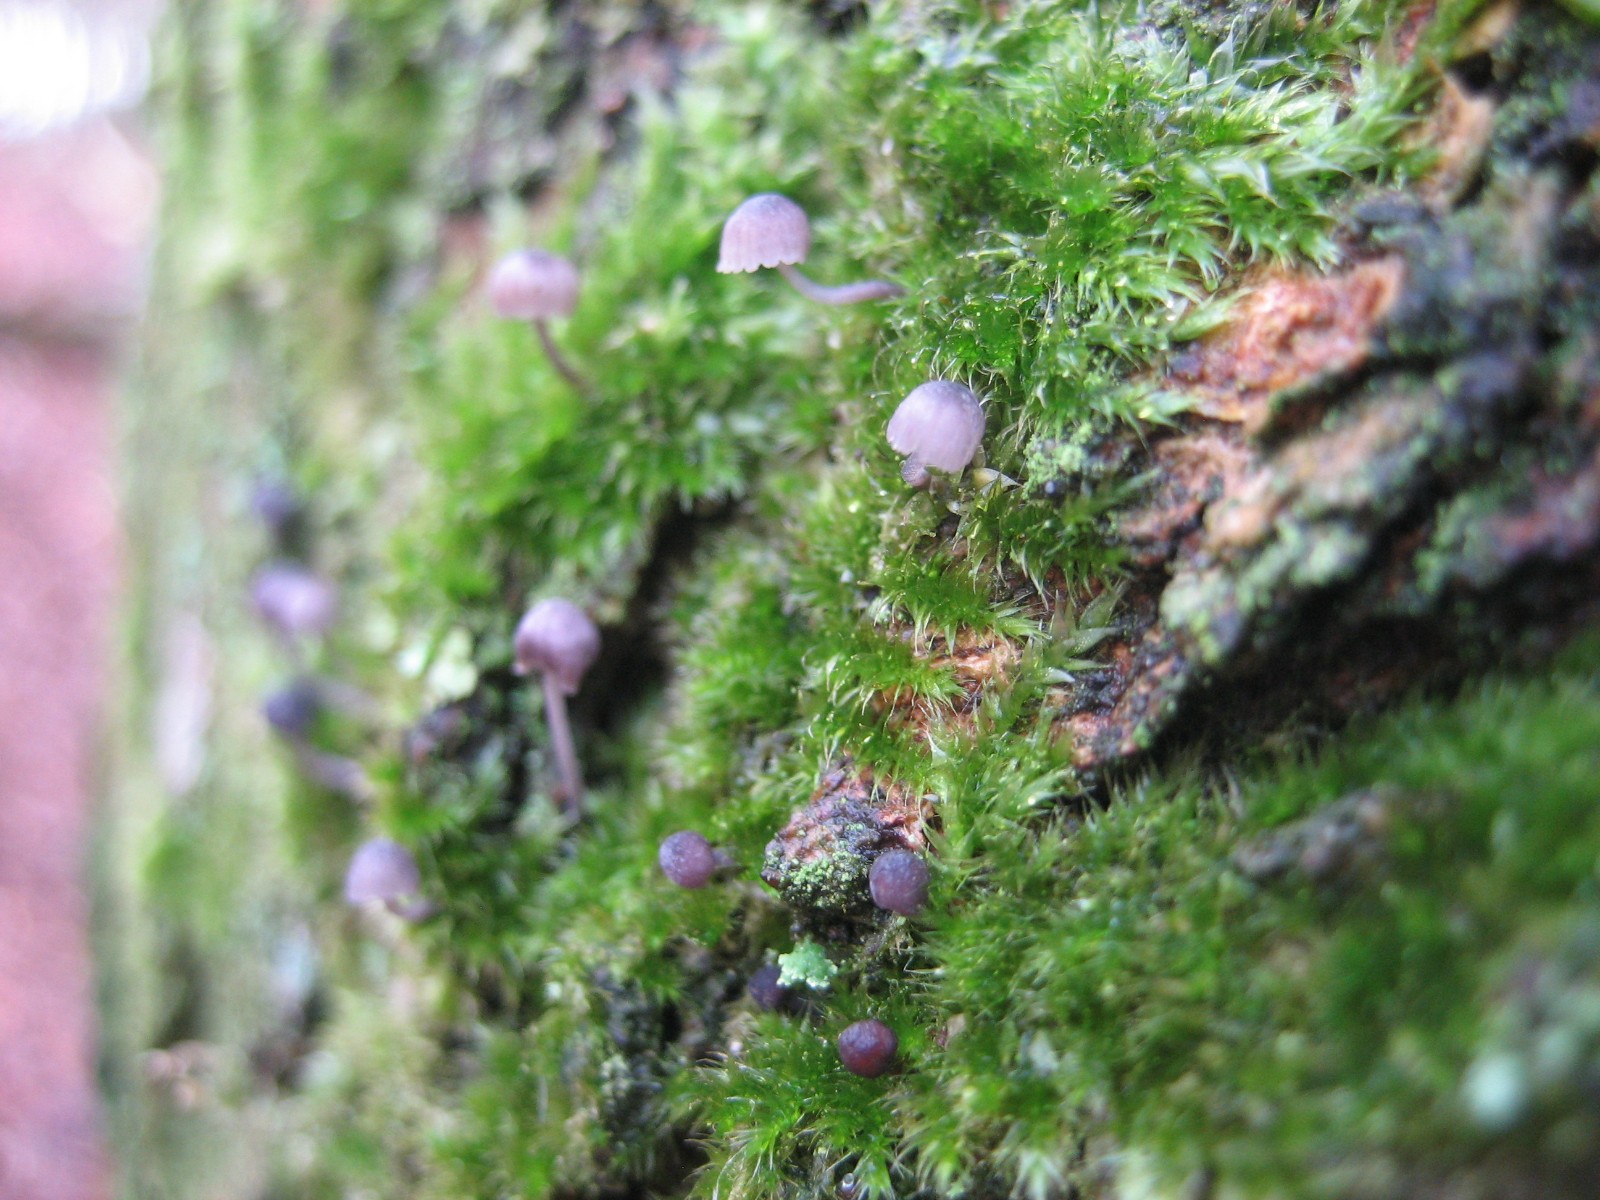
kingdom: Fungi
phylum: Basidiomycota
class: Agaricomycetes
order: Agaricales
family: Mycenaceae
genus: Mycena
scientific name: Mycena pseudocorticola
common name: gråblå bark-huesvamp
